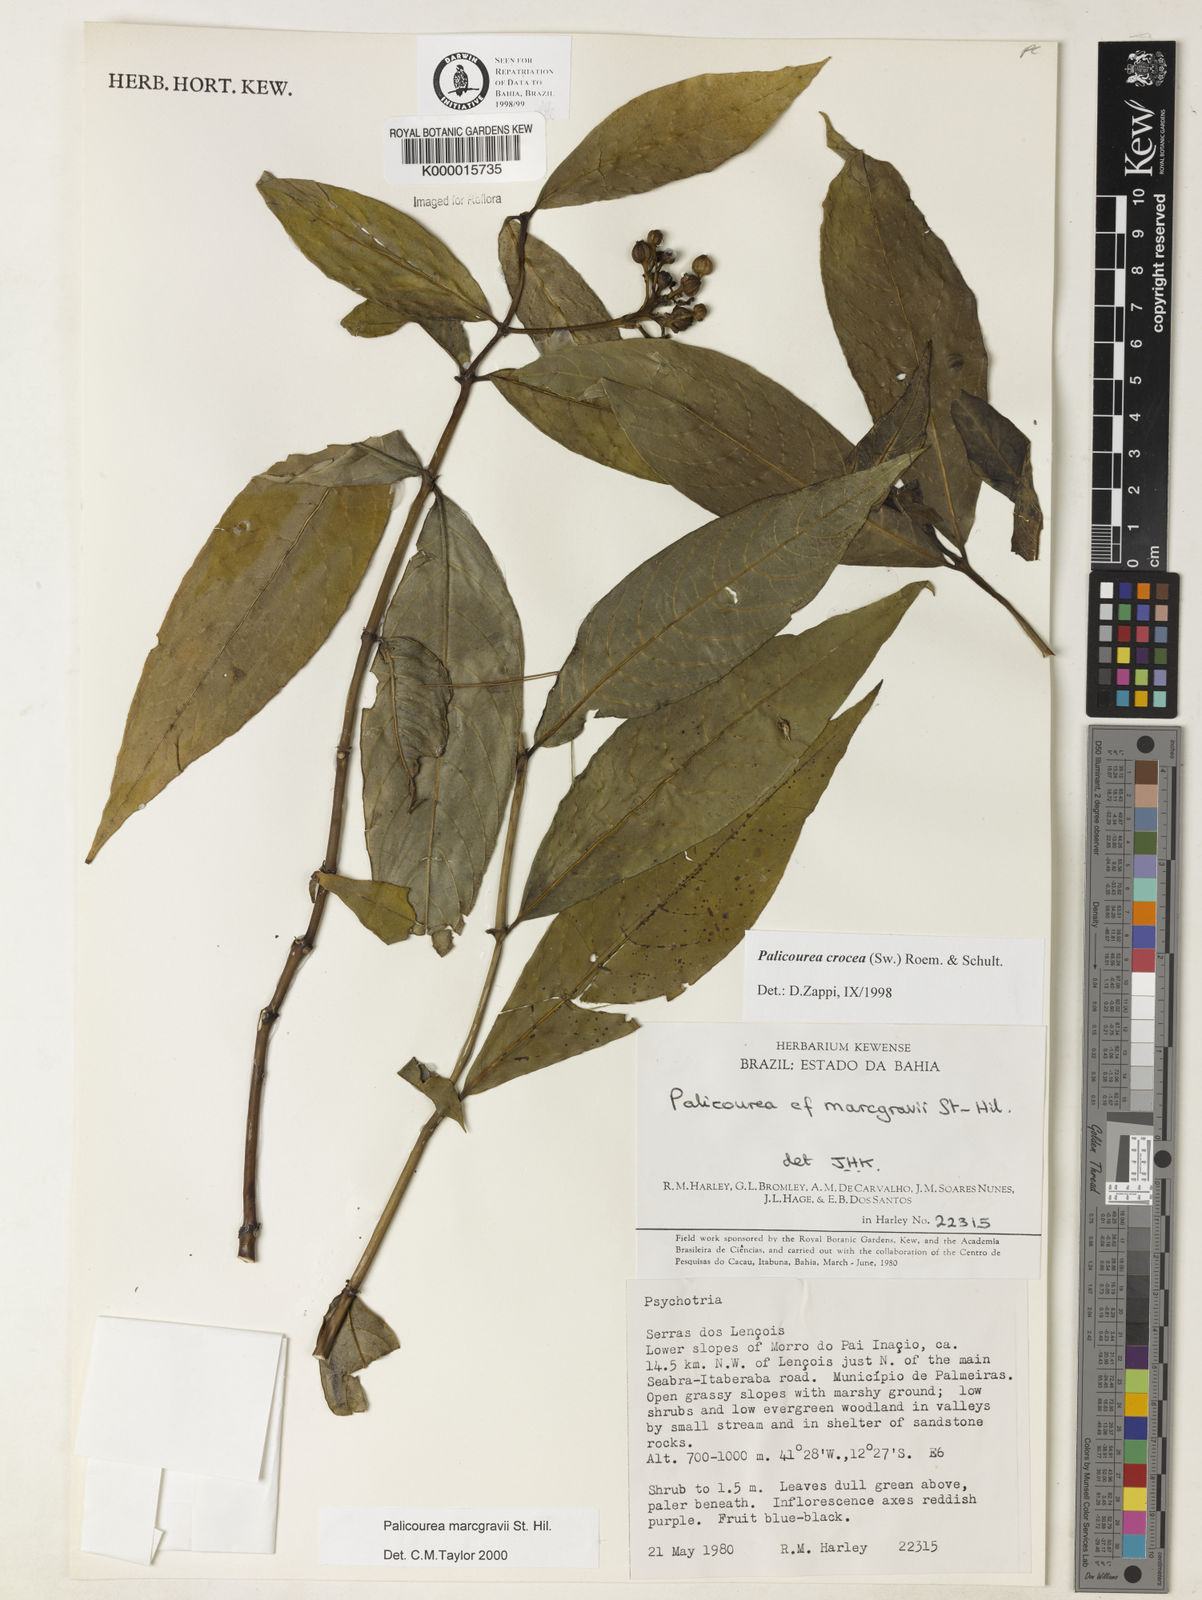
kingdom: Plantae
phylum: Tracheophyta
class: Magnoliopsida
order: Gentianales
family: Rubiaceae
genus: Palicourea
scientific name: Palicourea marcgravii
